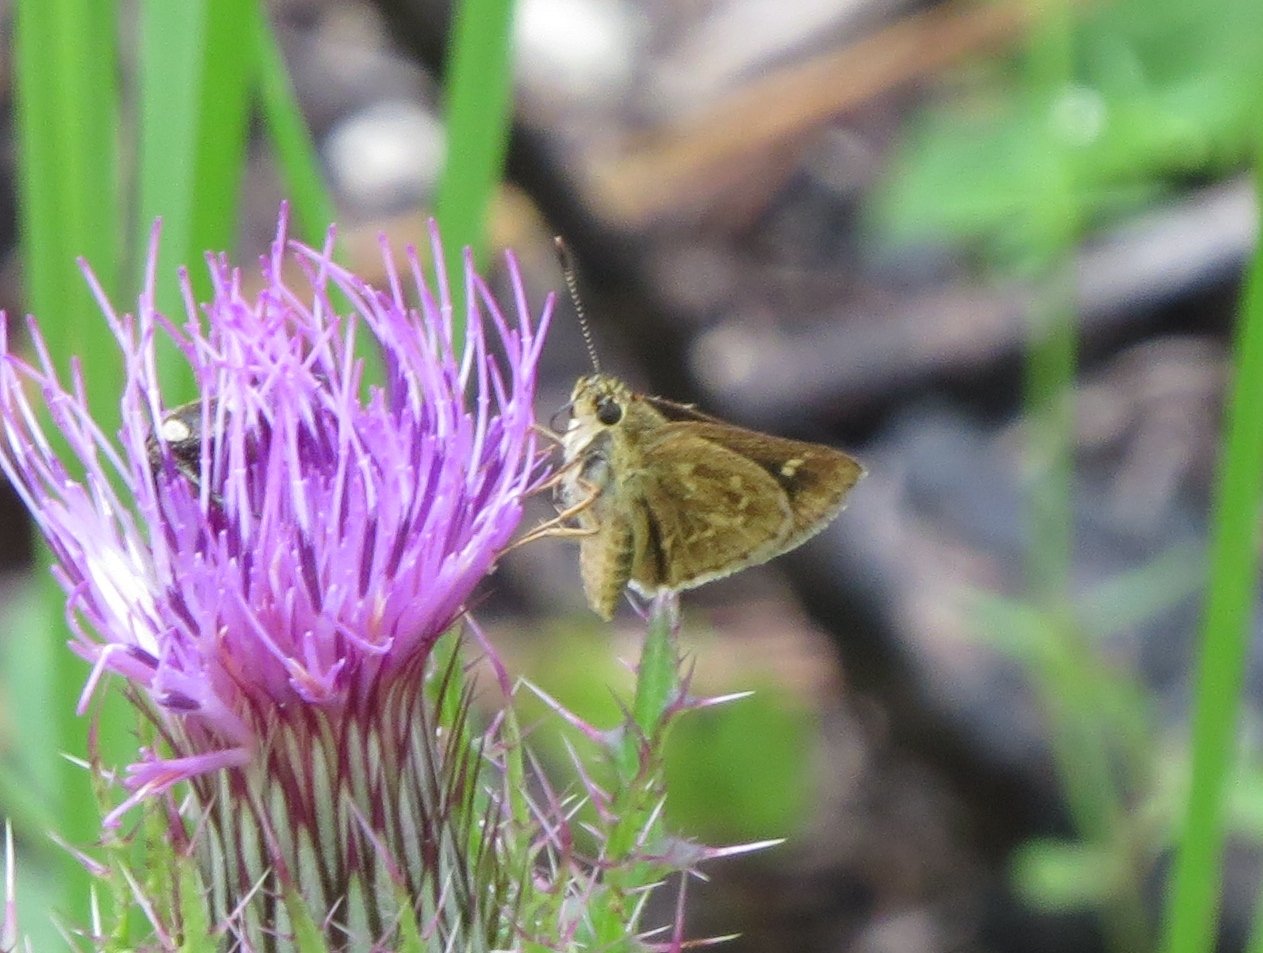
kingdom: Animalia
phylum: Arthropoda
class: Insecta
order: Lepidoptera
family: Hesperiidae
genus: Mastor
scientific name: Mastor carolina
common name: Reversed Roadside-skipper
